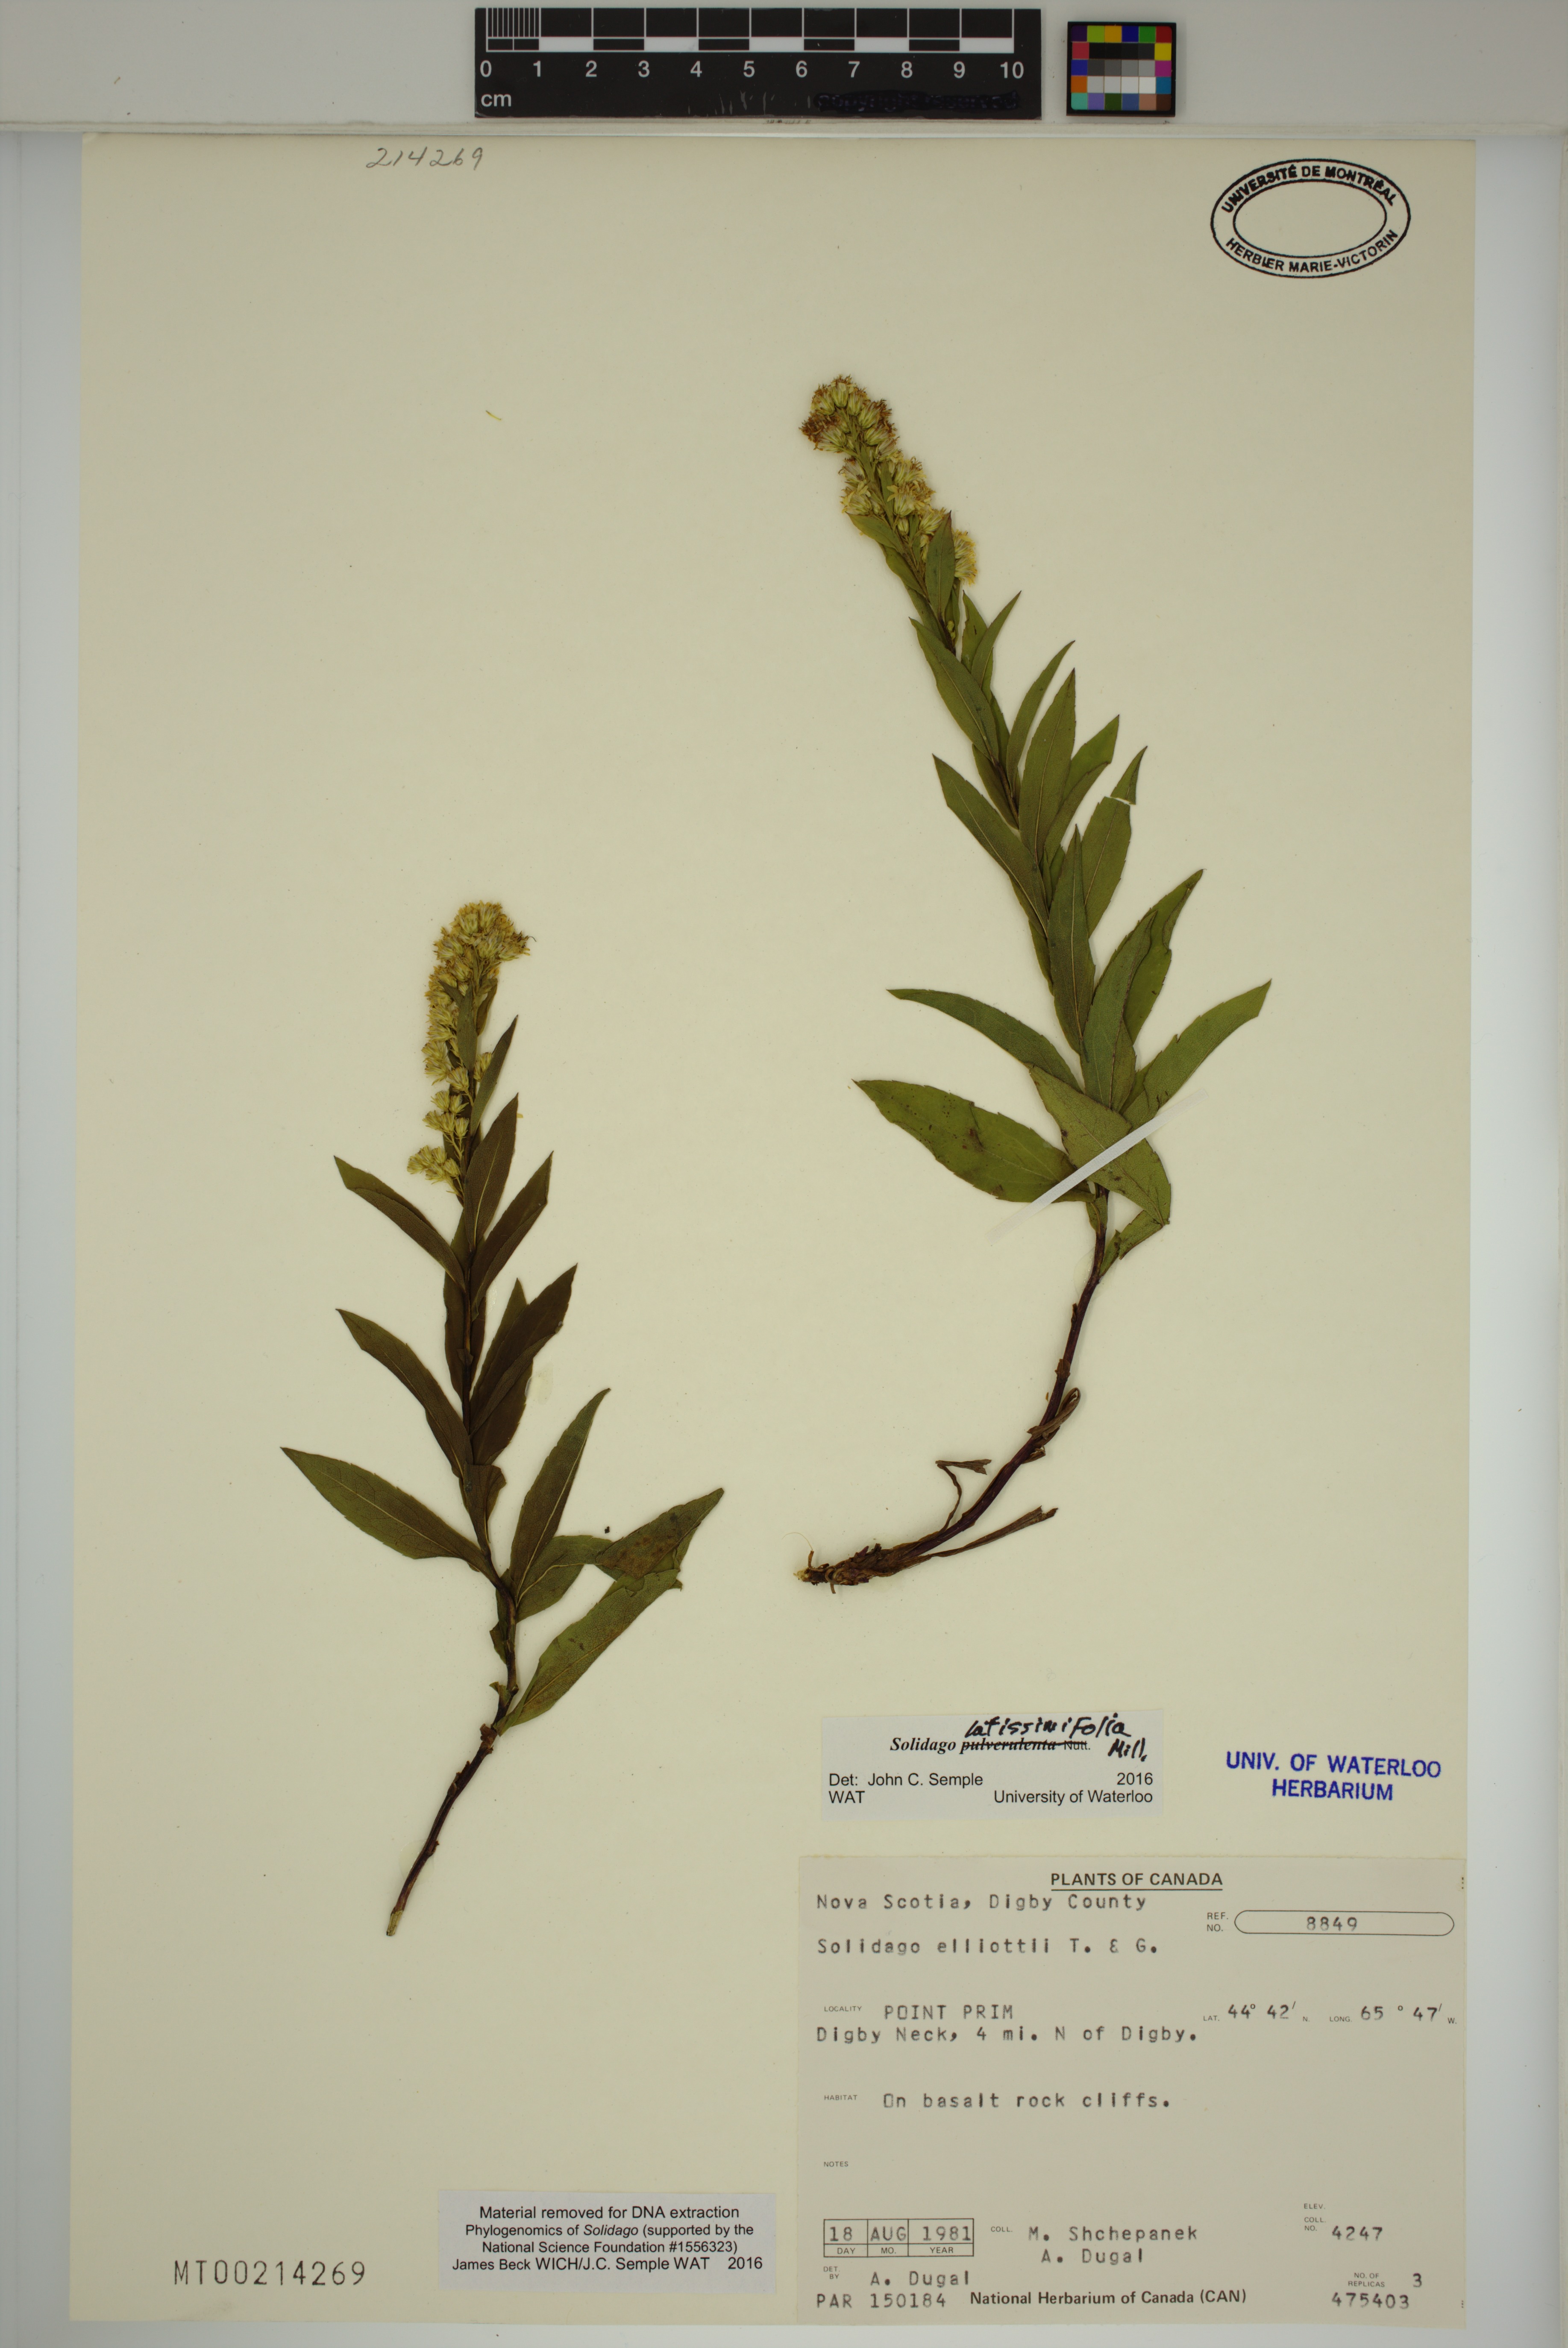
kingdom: Plantae
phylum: Tracheophyta
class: Magnoliopsida
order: Asterales
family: Asteraceae
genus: Solidago
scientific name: Solidago latissimifolia
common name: Elliott's goldenrod
